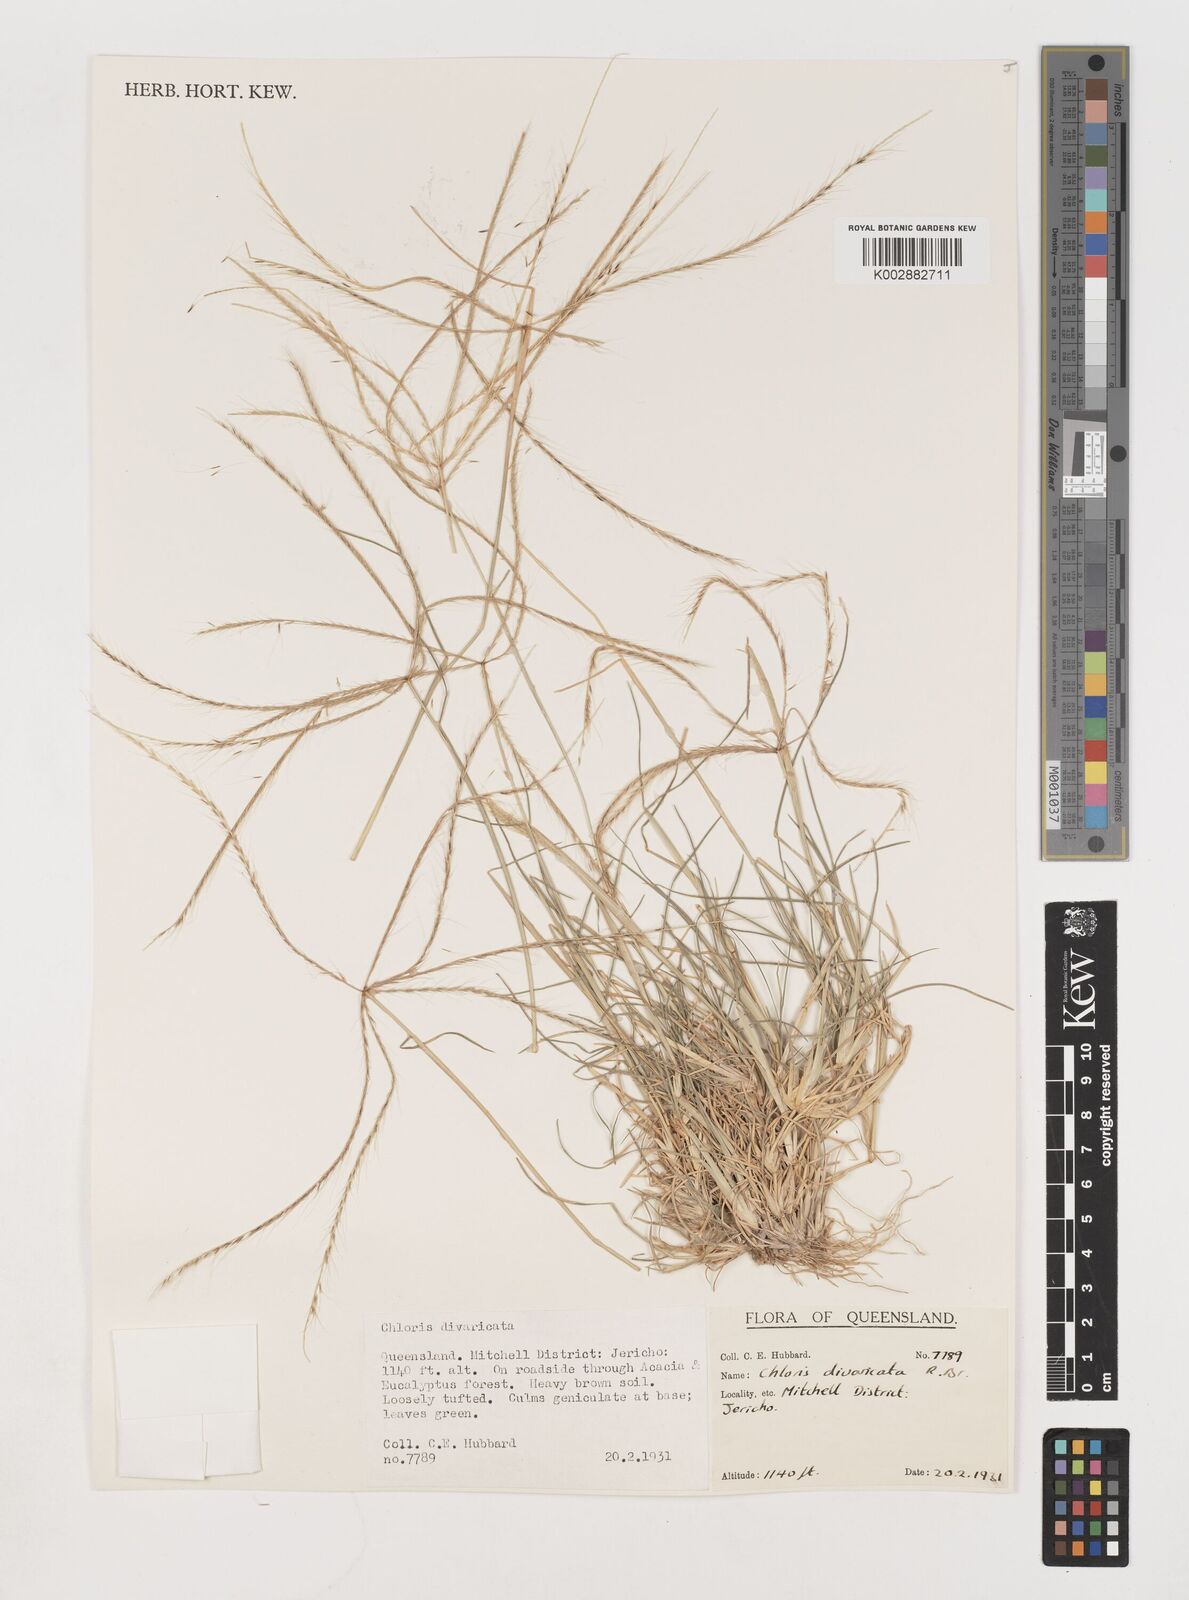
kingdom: Plantae
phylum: Tracheophyta
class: Liliopsida
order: Poales
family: Poaceae
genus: Chloris
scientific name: Chloris divaricata
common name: Spreading windmill grass
